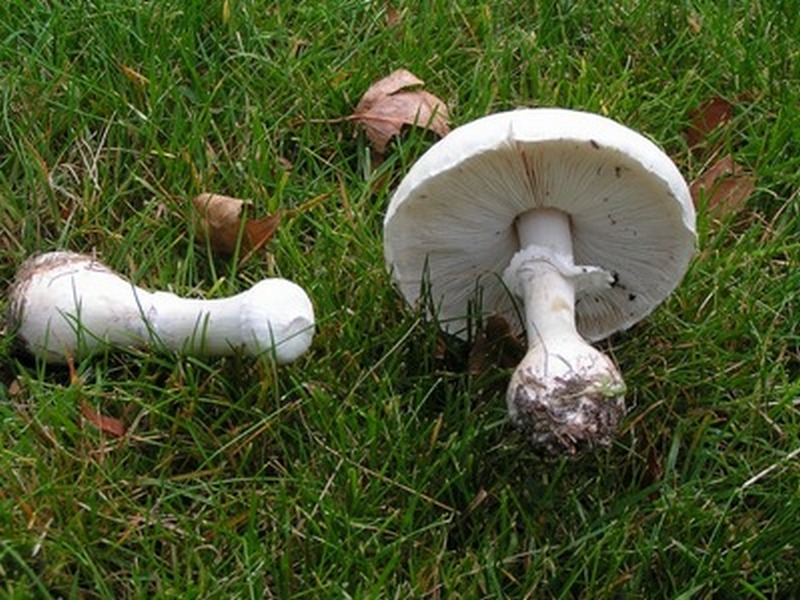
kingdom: Fungi
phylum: Basidiomycota
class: Agaricomycetes
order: Agaricales
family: Agaricaceae
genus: Leucoagaricus
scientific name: Leucoagaricus leucothites
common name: rosabladet silkehat
